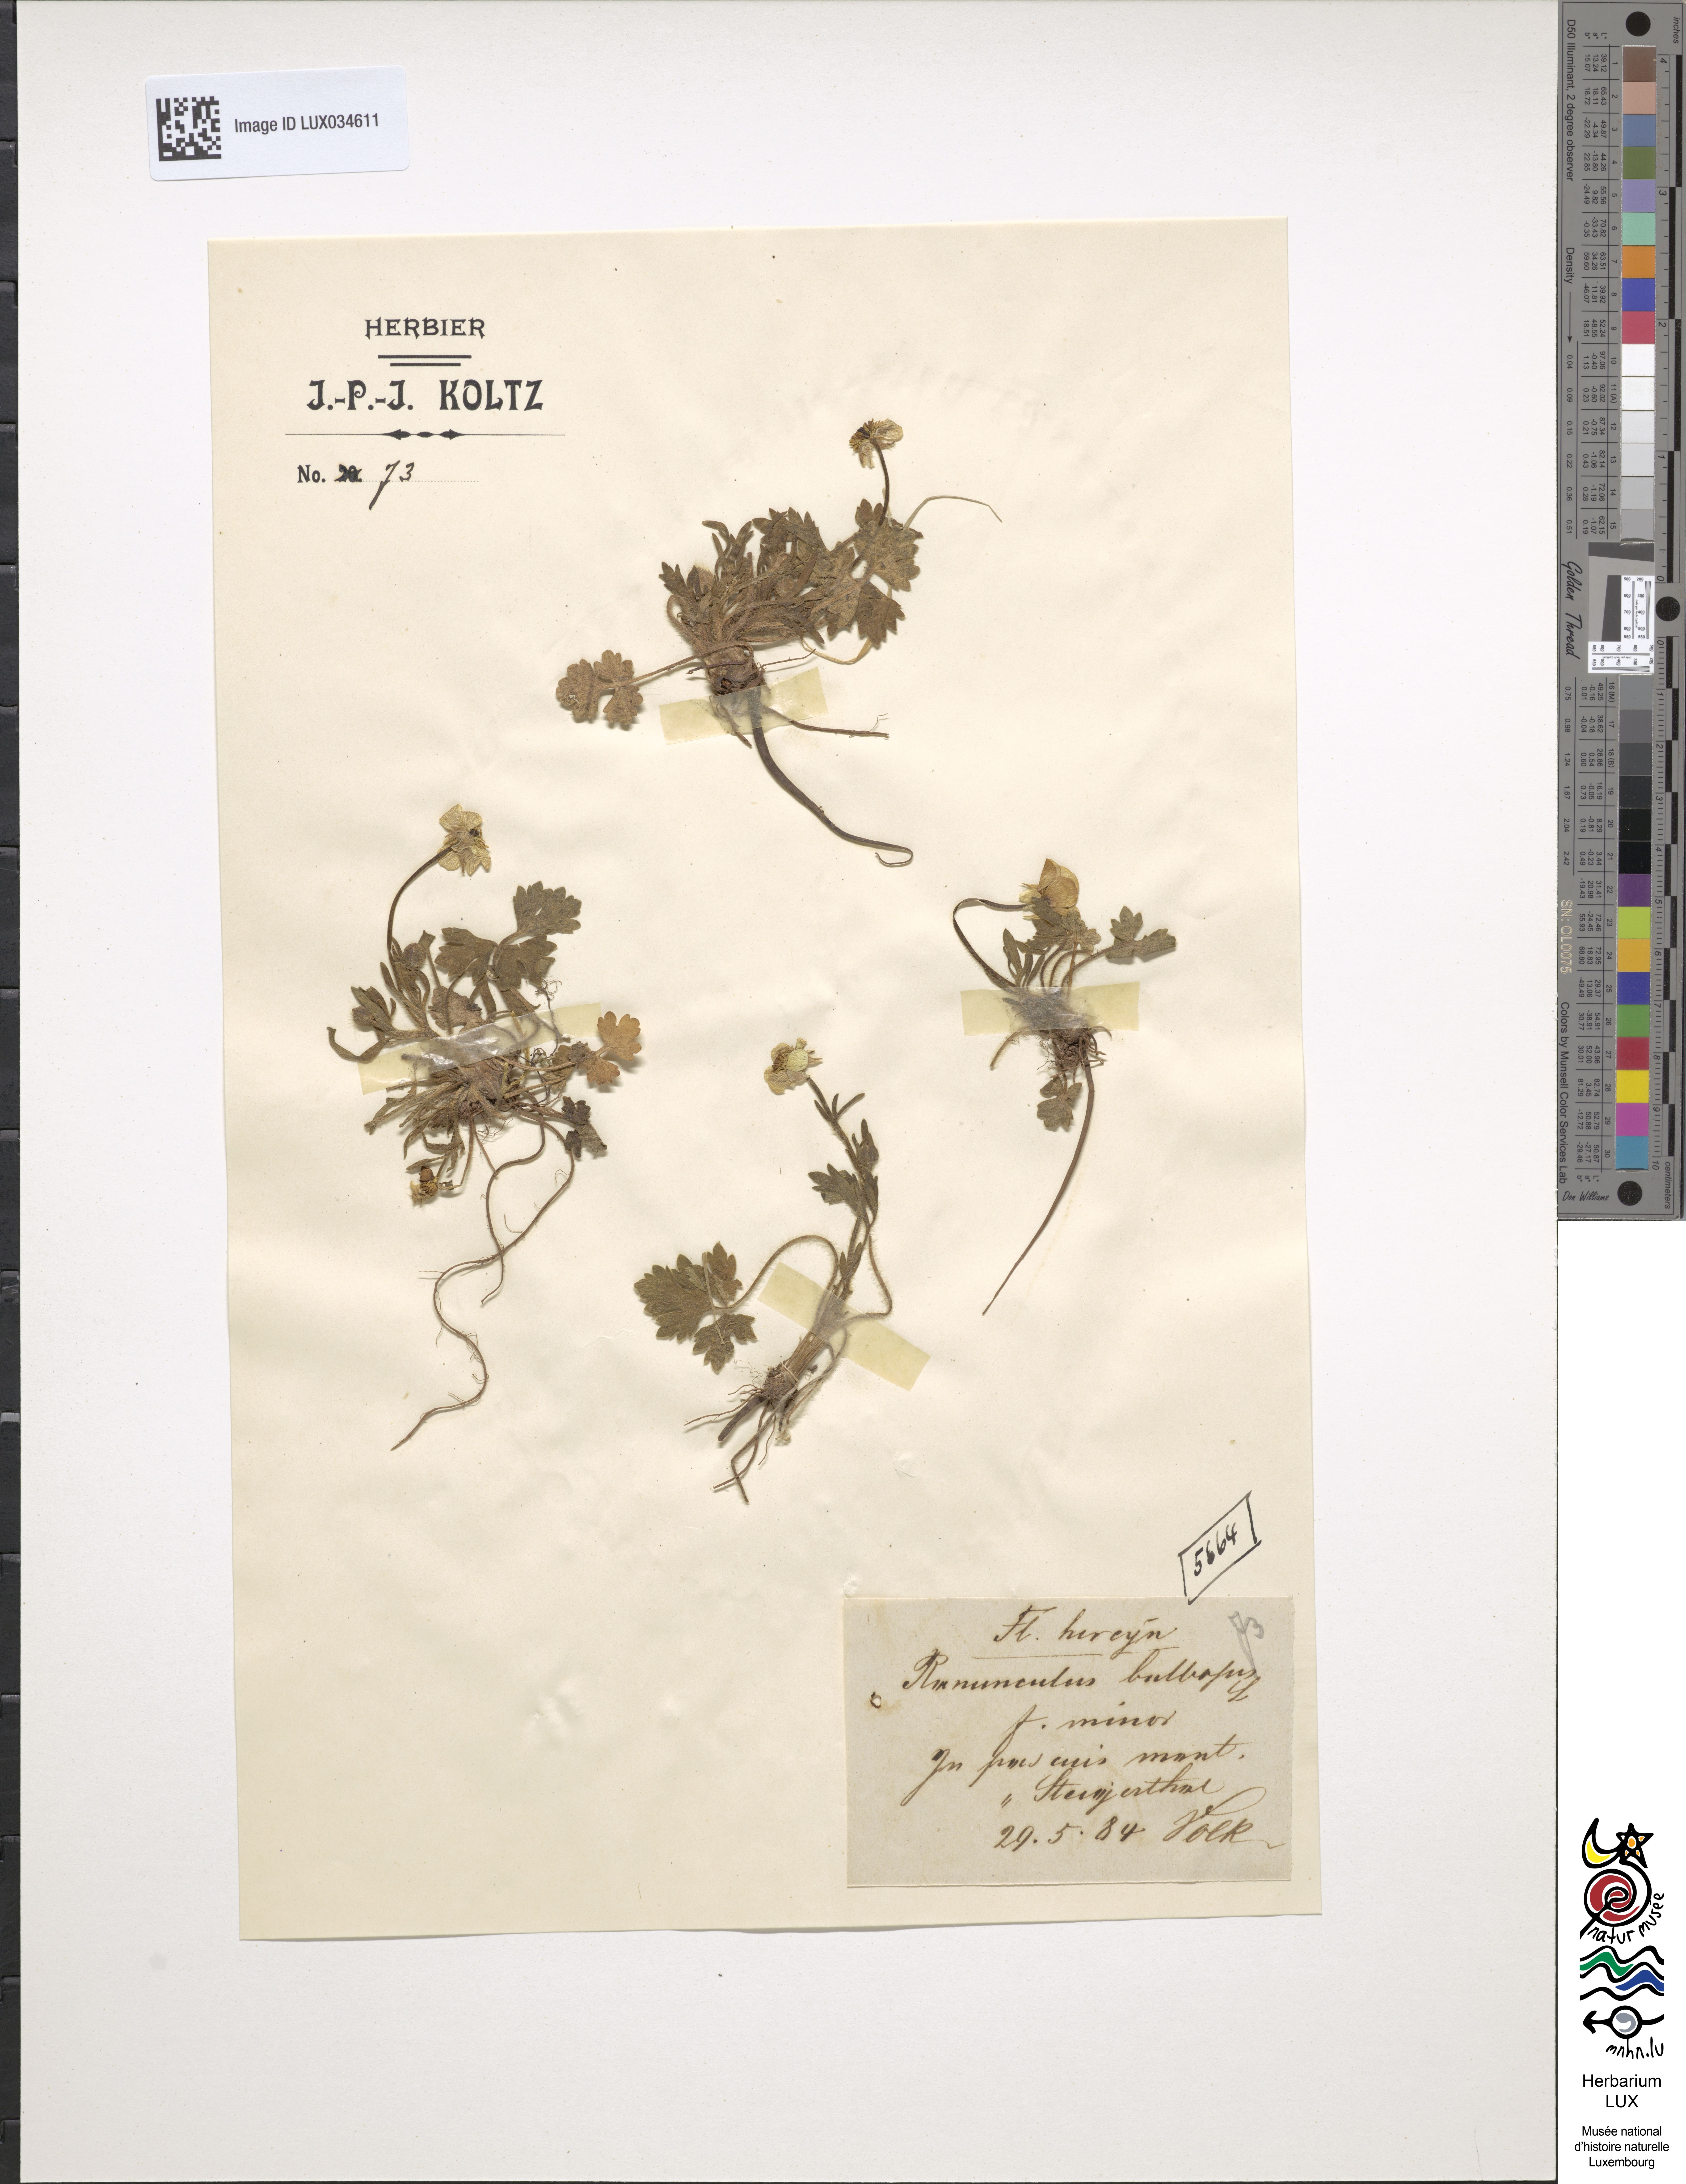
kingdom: Plantae
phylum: Tracheophyta
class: Magnoliopsida
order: Ranunculales
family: Ranunculaceae
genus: Ranunculus
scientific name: Ranunculus bulbosus
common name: Bulbous buttercup
